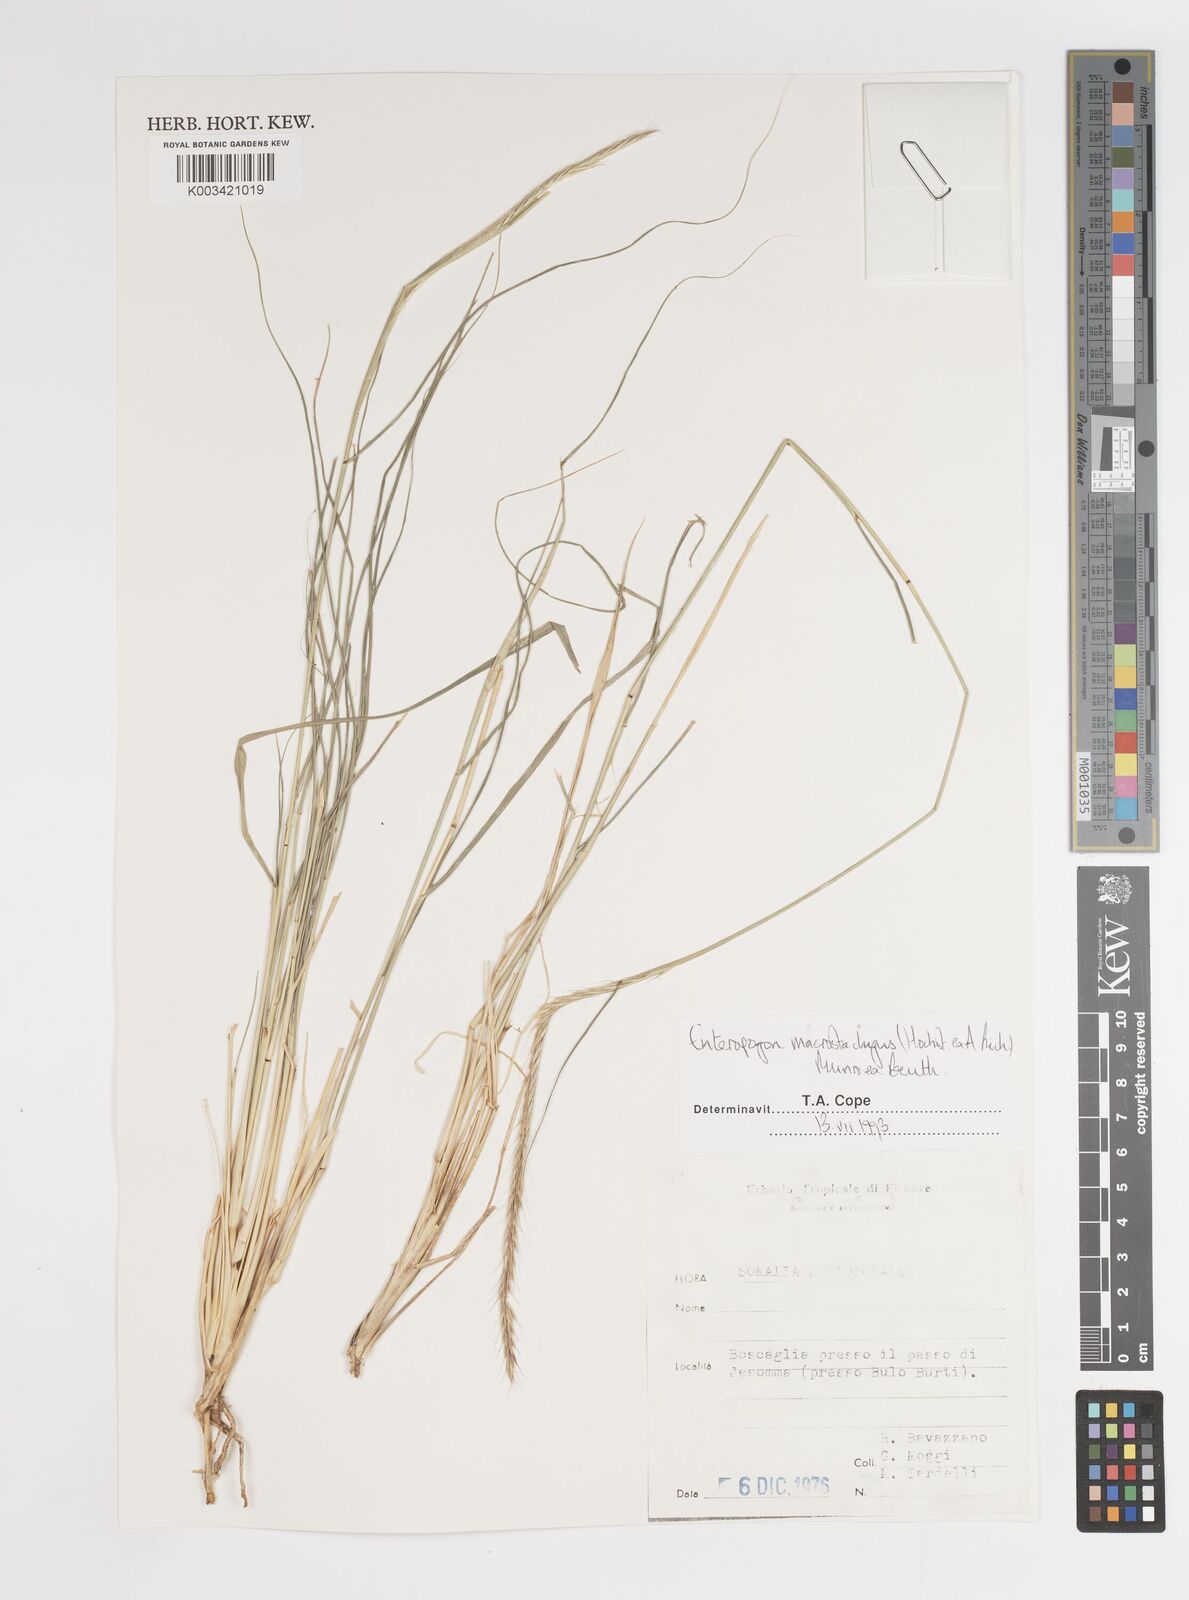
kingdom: Plantae
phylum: Tracheophyta
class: Liliopsida
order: Poales
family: Poaceae
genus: Enteropogon
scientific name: Enteropogon macrostachyus
